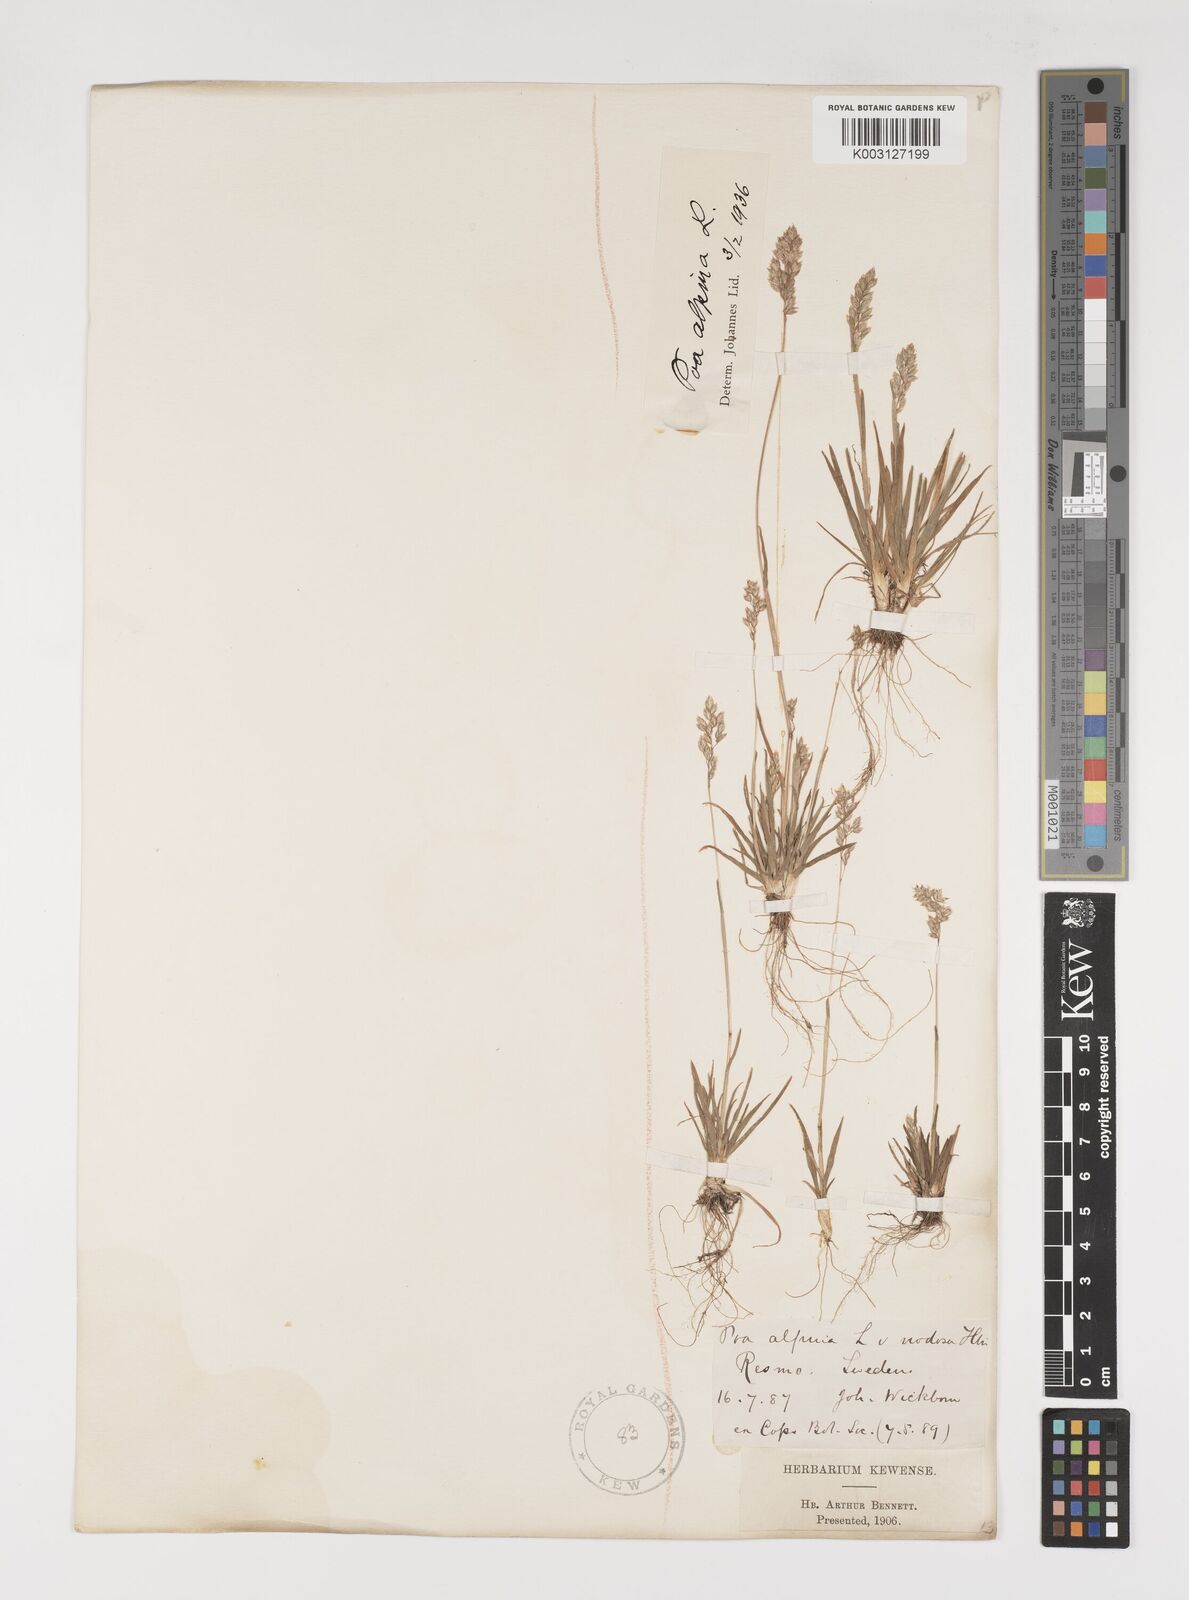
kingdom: Plantae
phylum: Tracheophyta
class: Liliopsida
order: Poales
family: Poaceae
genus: Poa
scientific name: Poa alpina
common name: Alpine bluegrass
